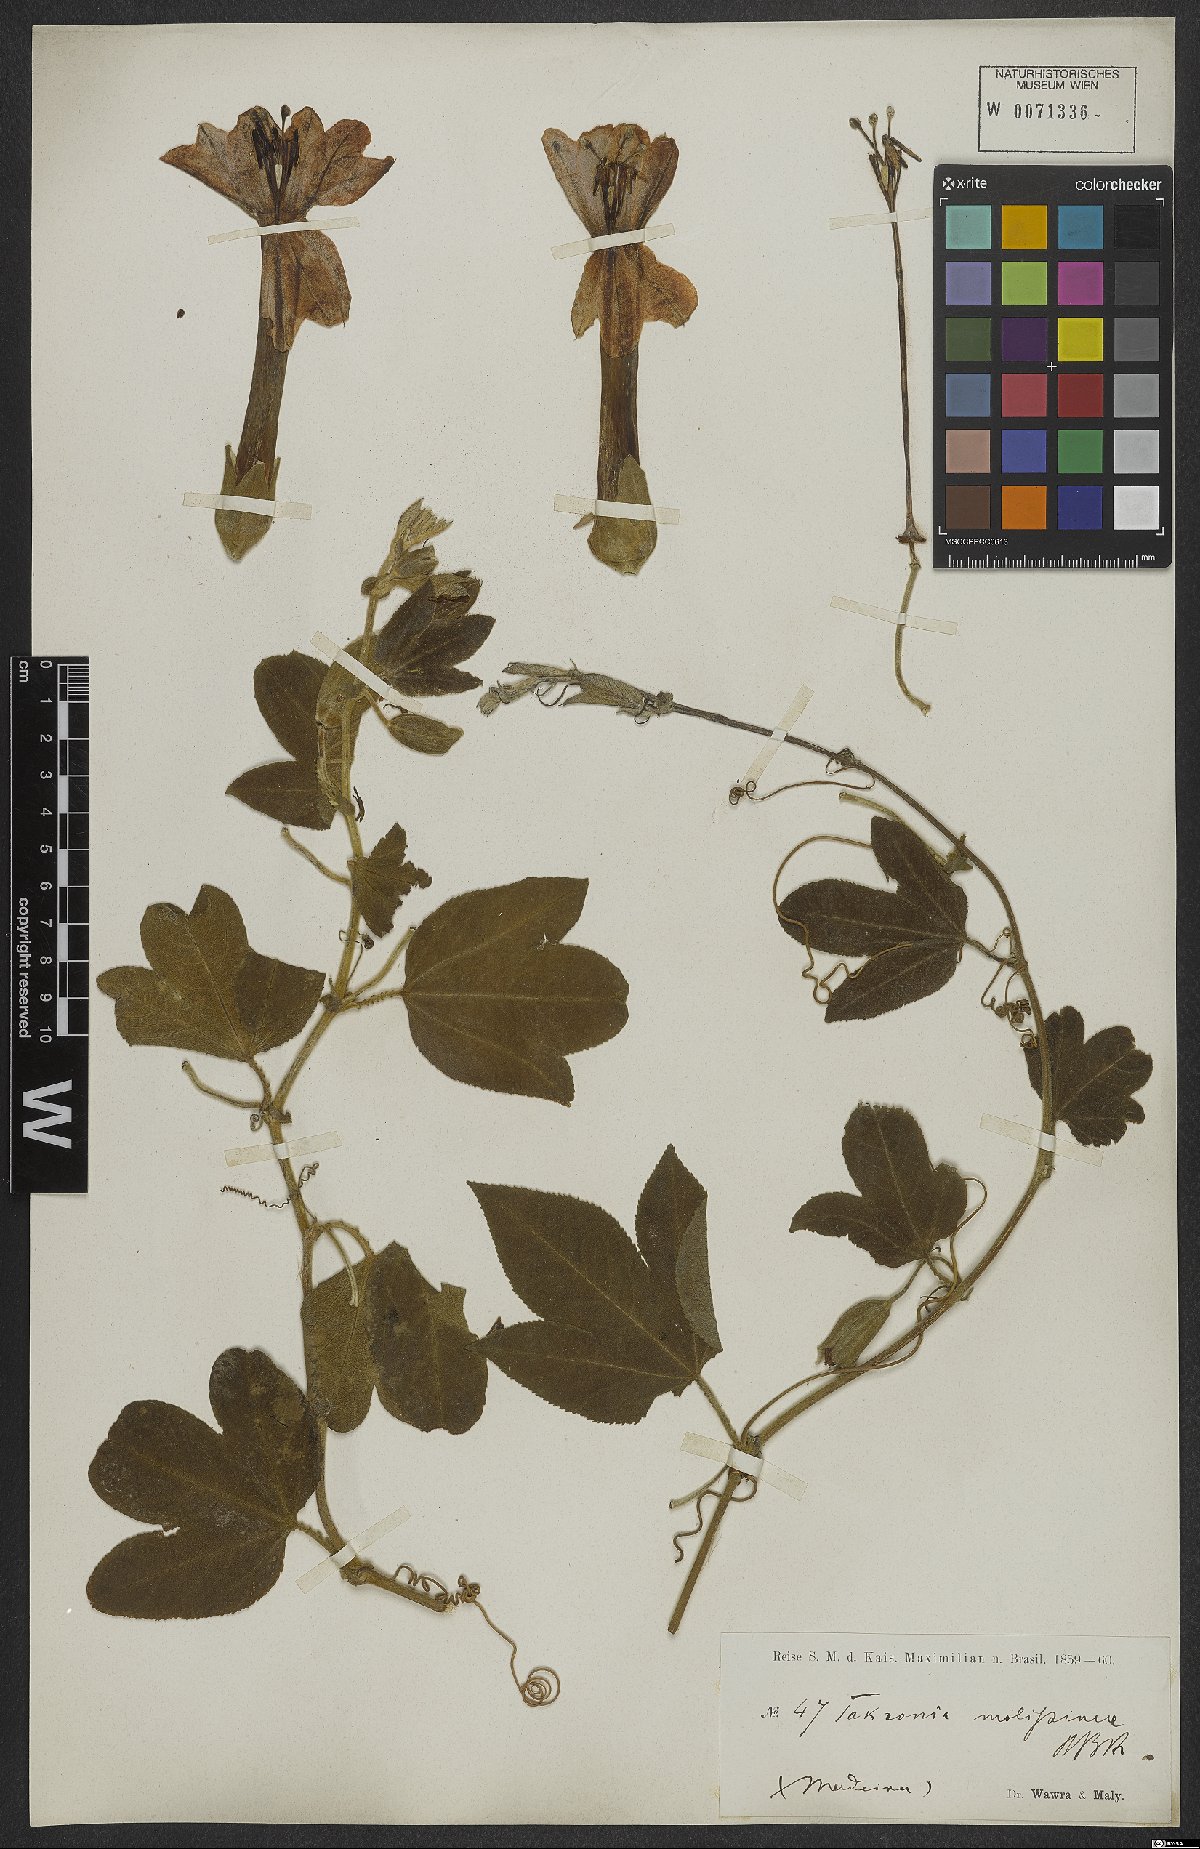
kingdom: Plantae
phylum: Tracheophyta
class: Magnoliopsida
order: Malpighiales
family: Passifloraceae
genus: Passiflora
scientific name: Passiflora tripartita
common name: Banana poka
